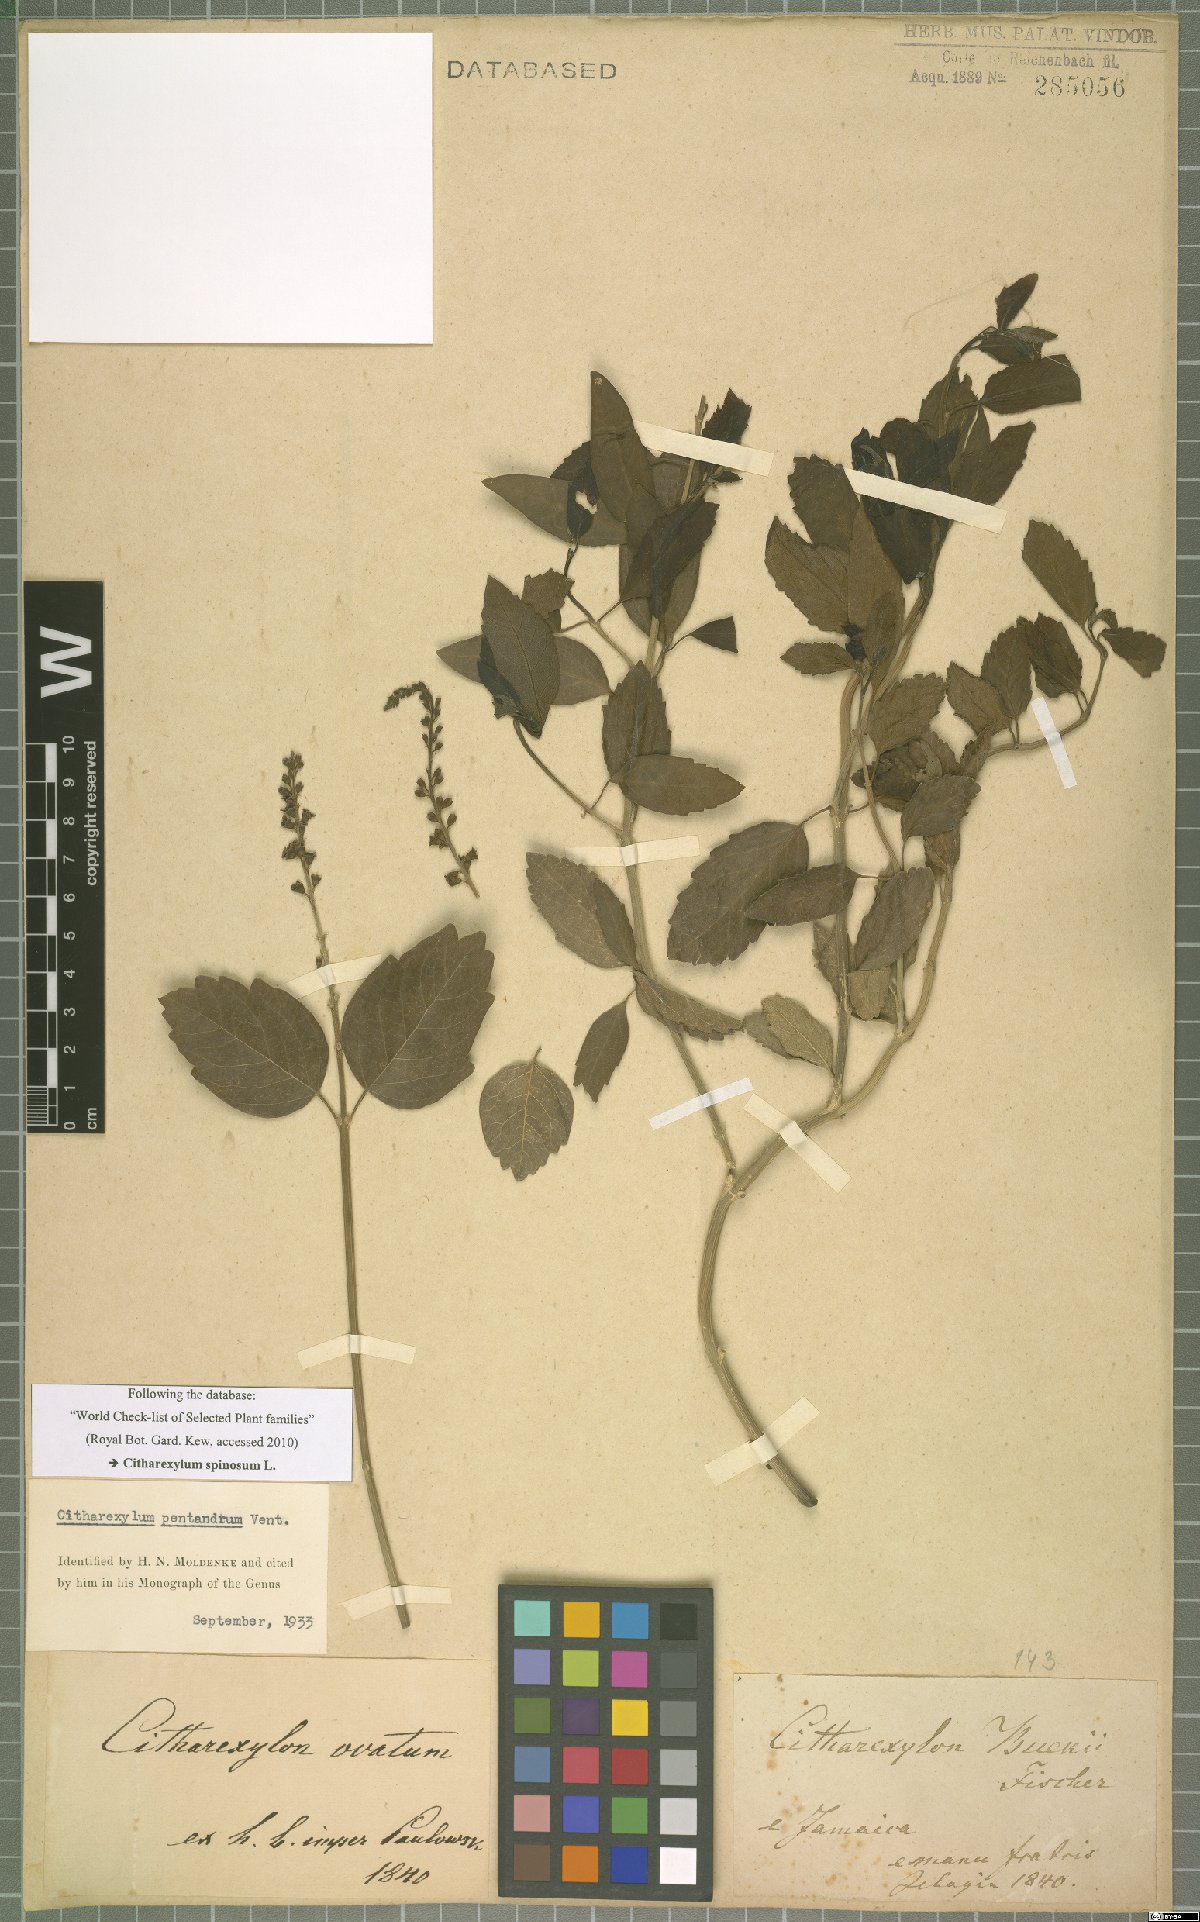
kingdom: Plantae
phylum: Tracheophyta
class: Magnoliopsida
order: Lamiales
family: Verbenaceae
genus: Citharexylum
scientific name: Citharexylum spinosum
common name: Fiddlewood
